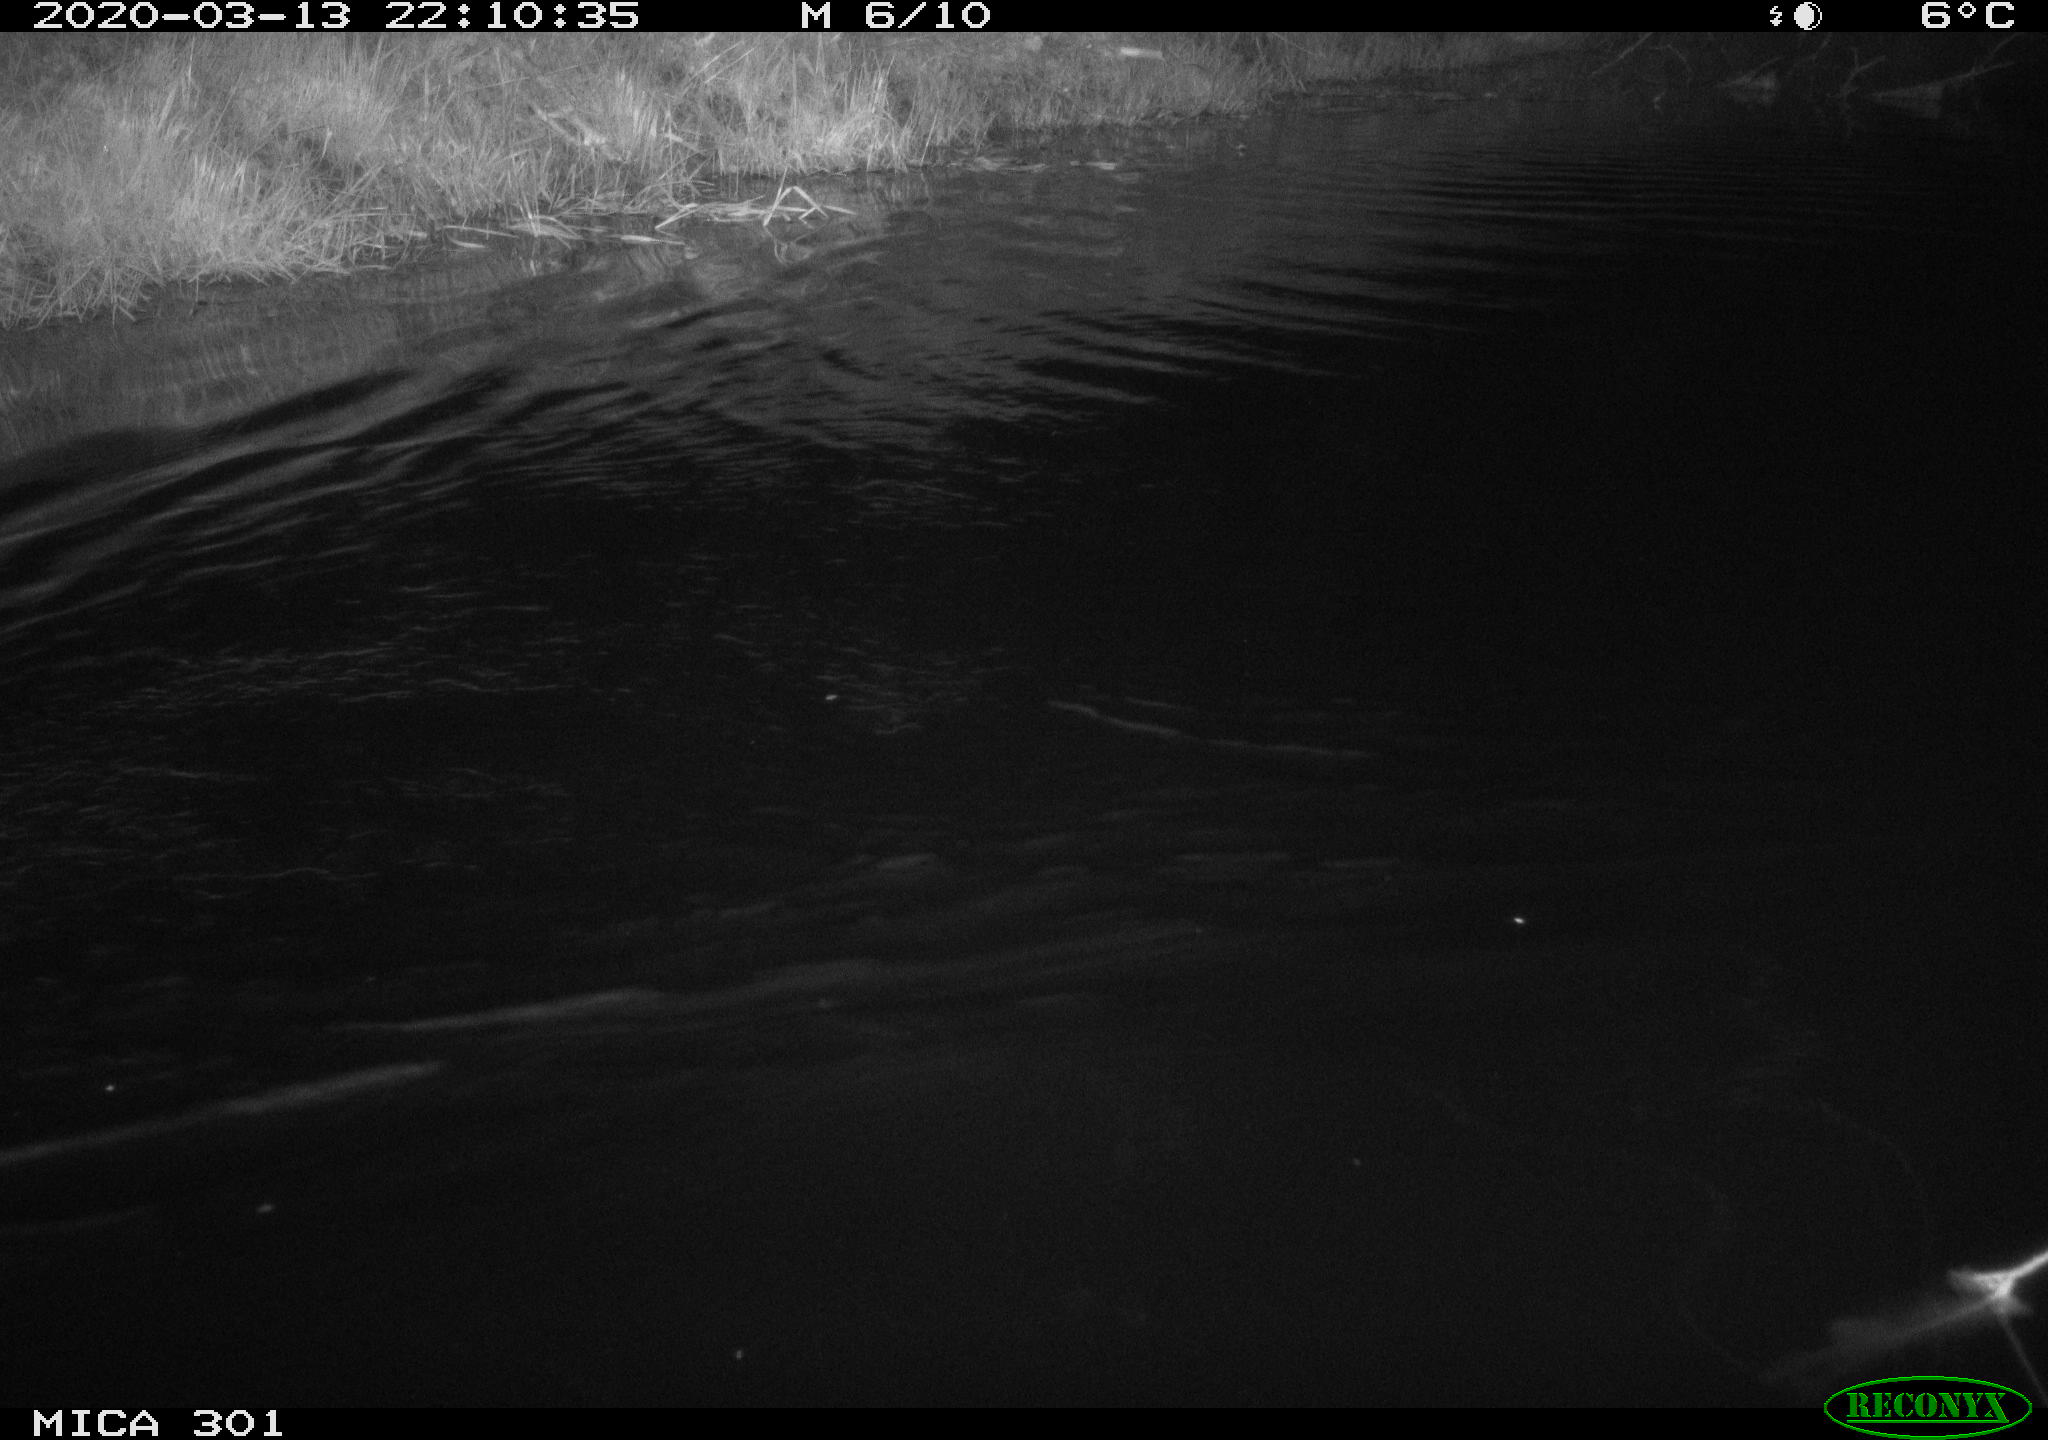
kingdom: Animalia
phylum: Chordata
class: Mammalia
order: Rodentia
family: Castoridae
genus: Castor
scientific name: Castor fiber
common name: Eurasian beaver
